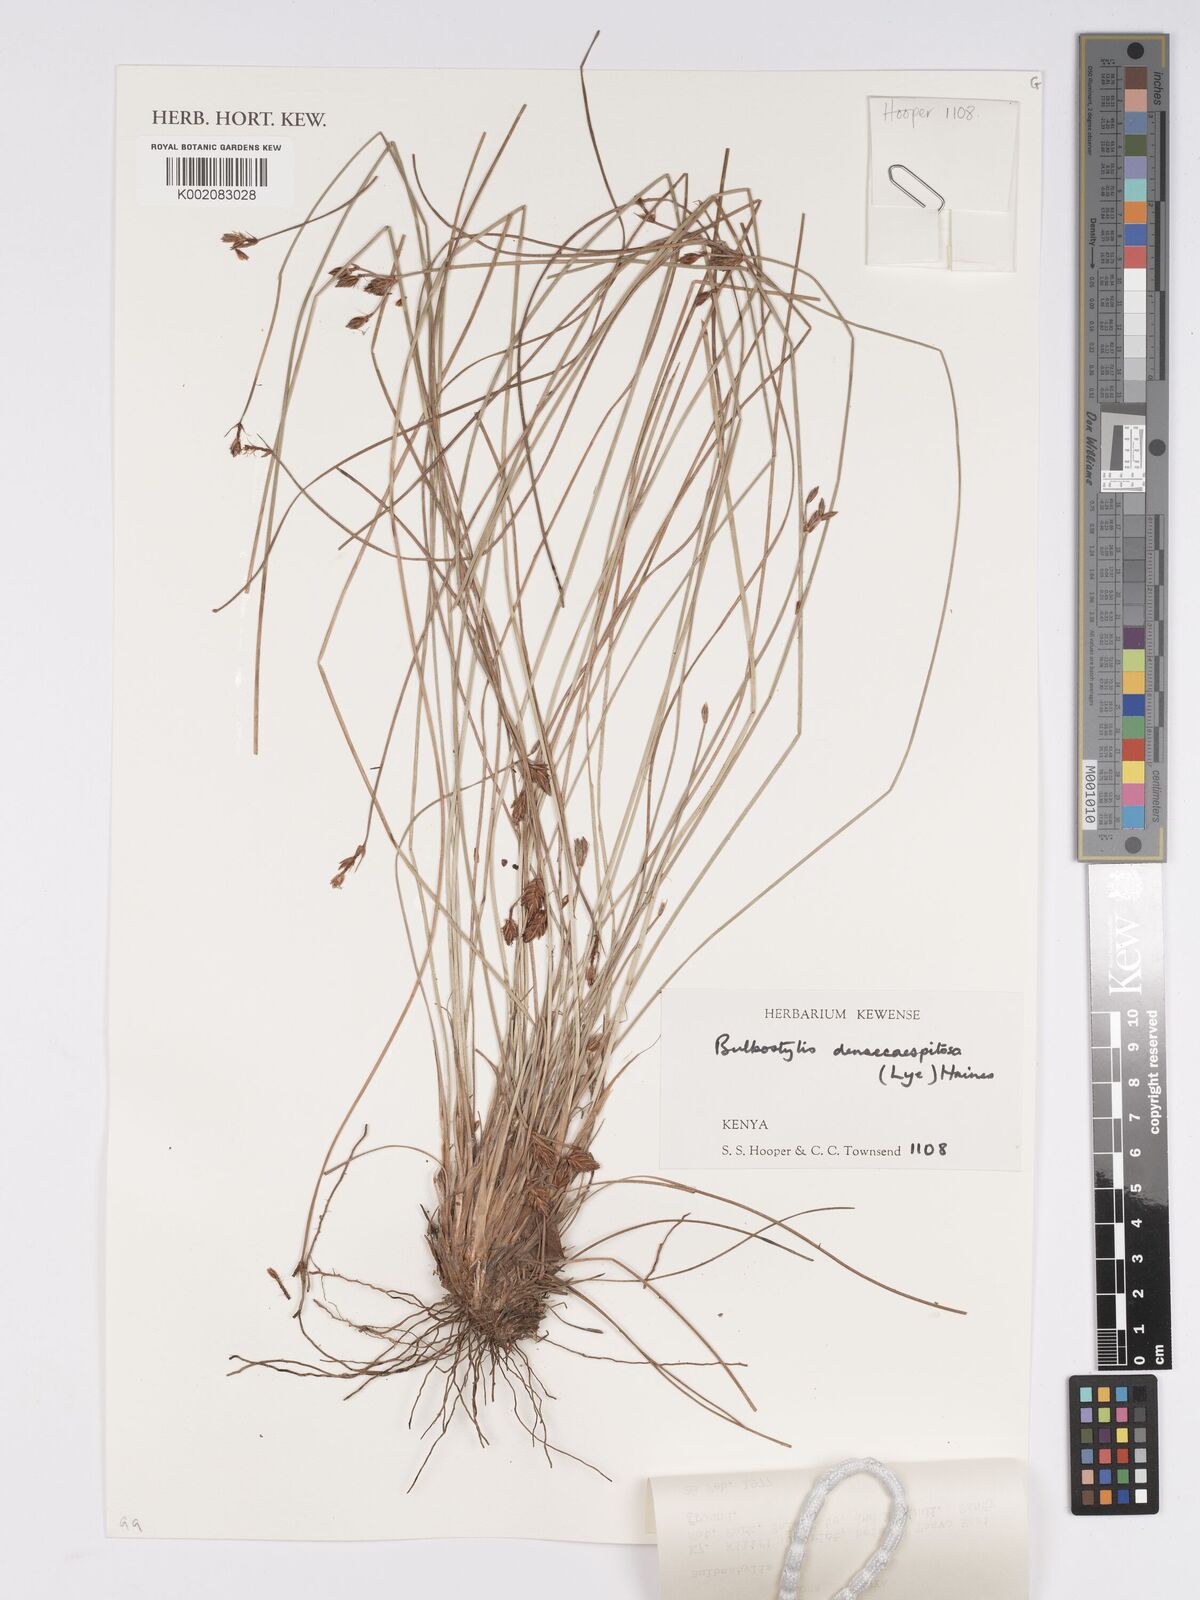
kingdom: Plantae
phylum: Tracheophyta
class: Liliopsida
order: Poales
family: Cyperaceae
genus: Bulbostylis
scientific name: Bulbostylis densicaespitosa
